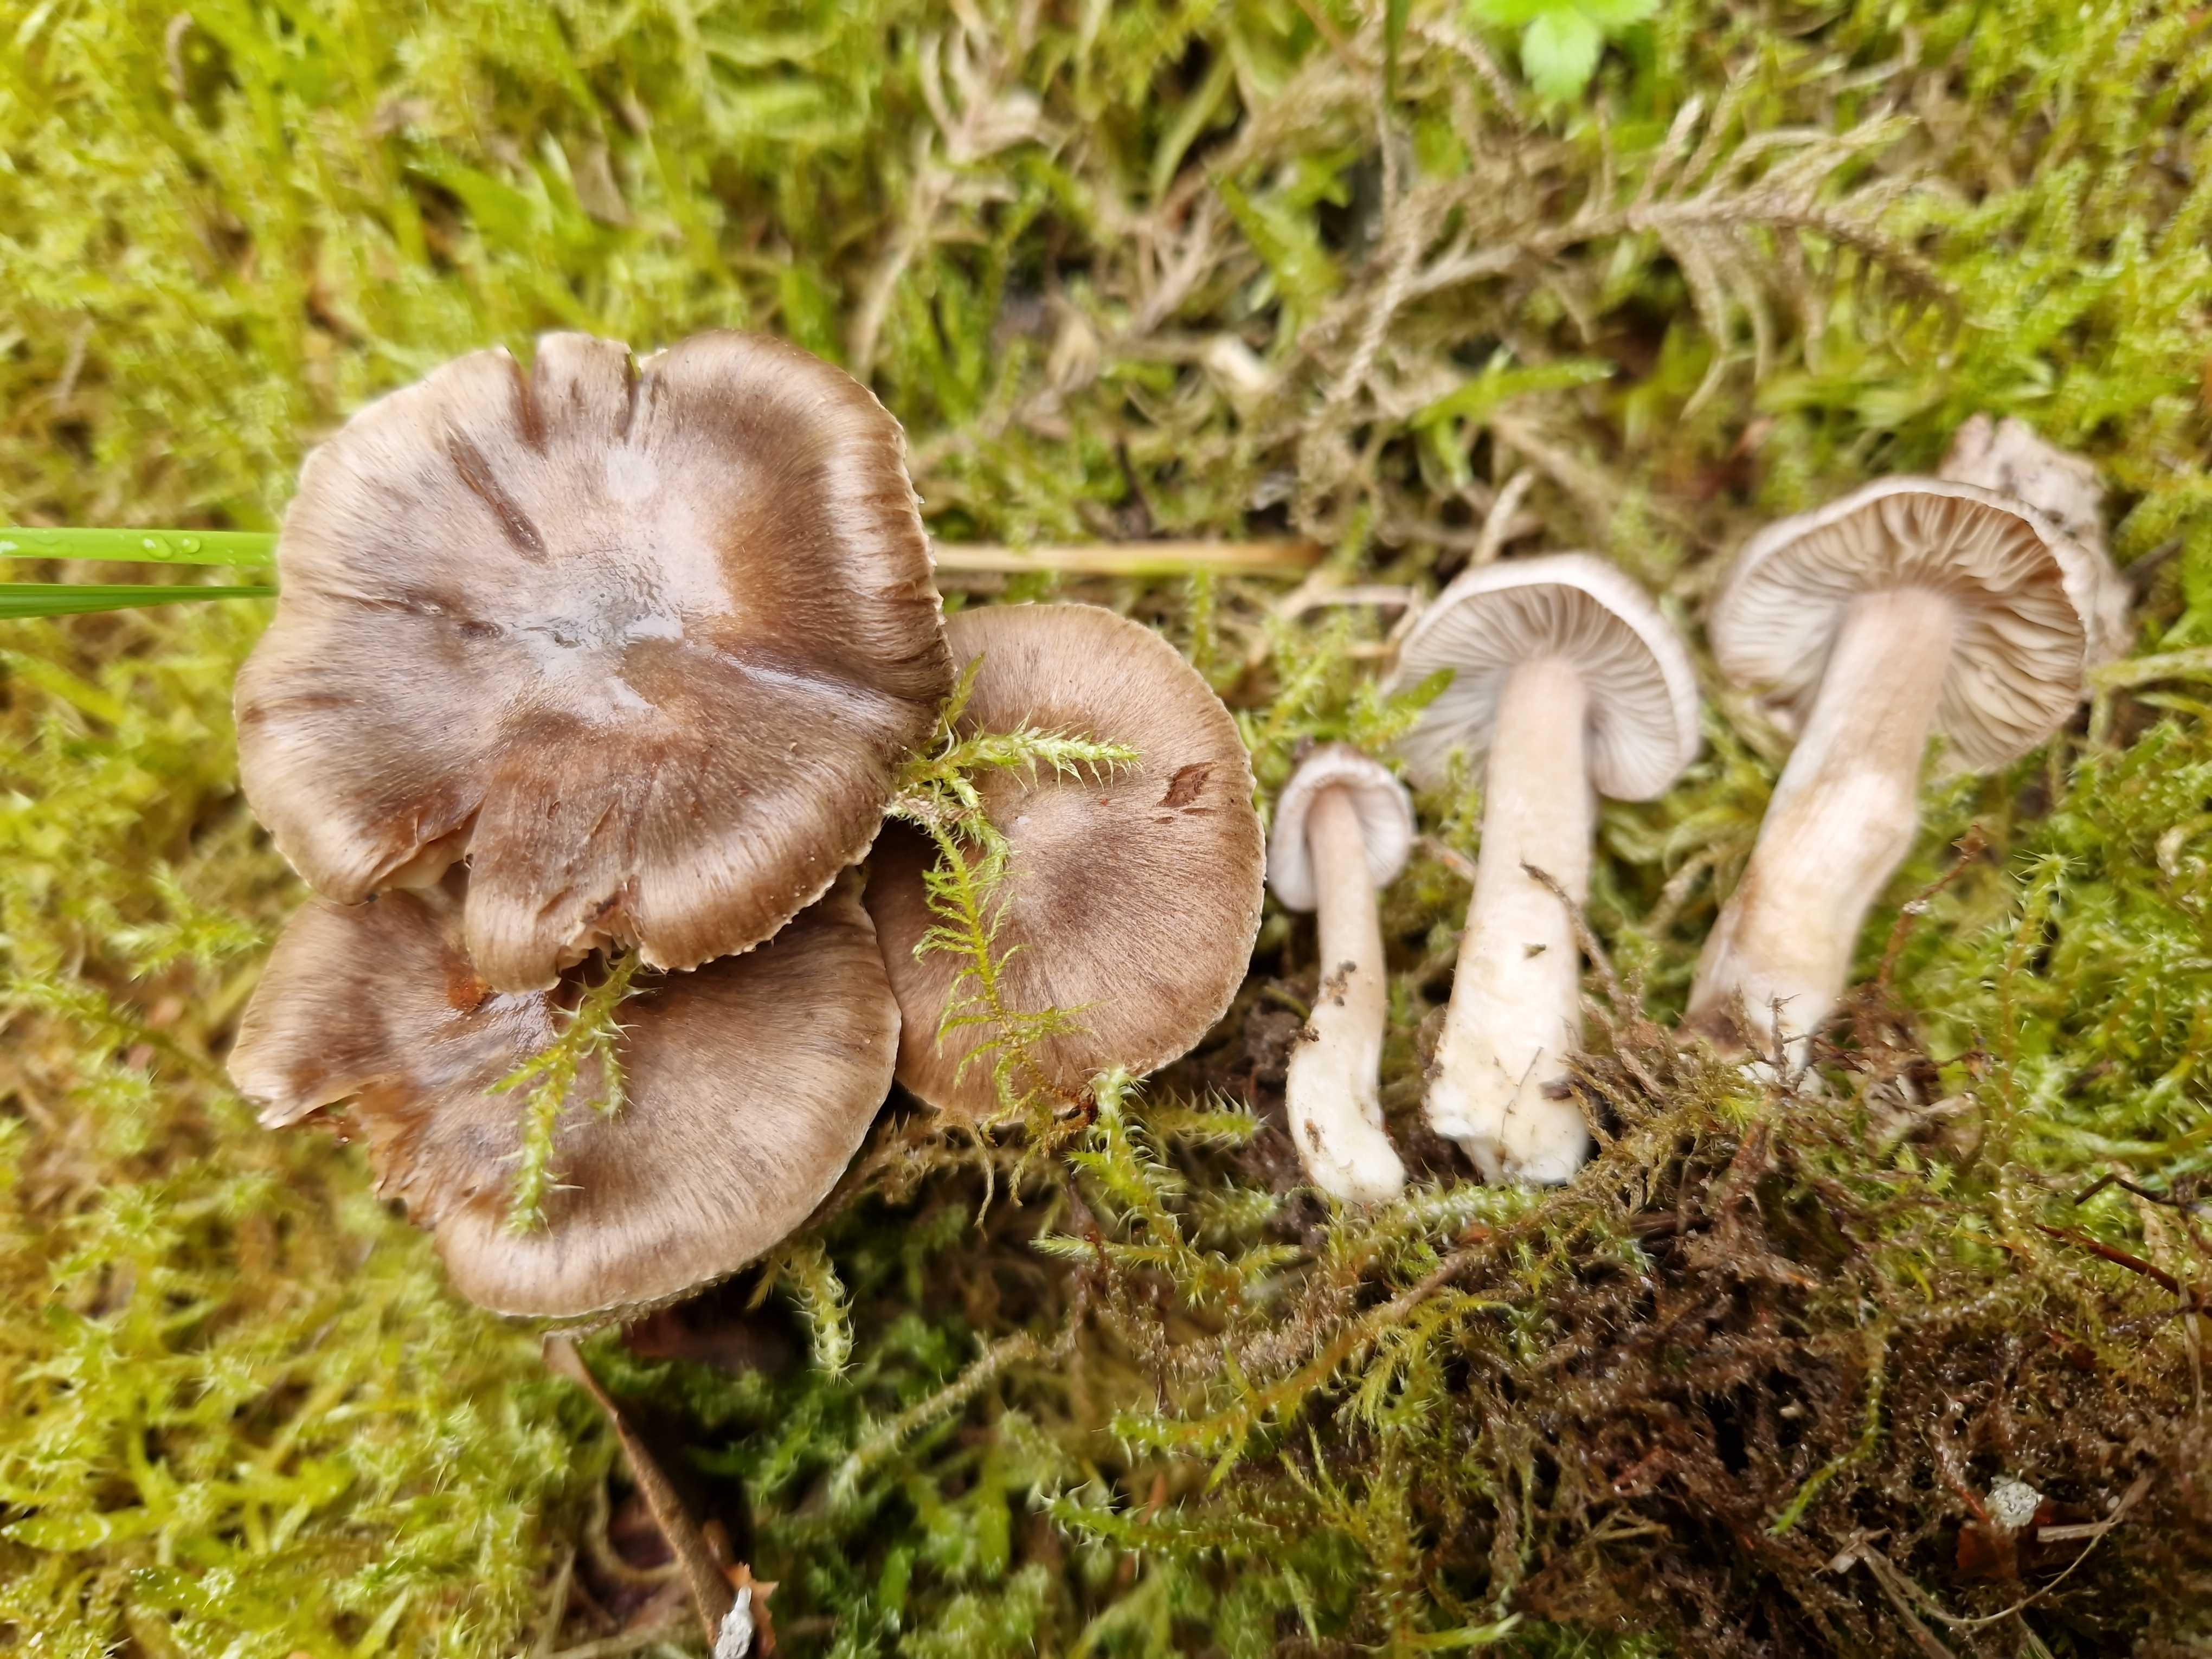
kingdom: Fungi
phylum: Basidiomycota
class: Agaricomycetes
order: Agaricales
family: Inocybaceae
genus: Inocybe
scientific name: Inocybe giacomi
